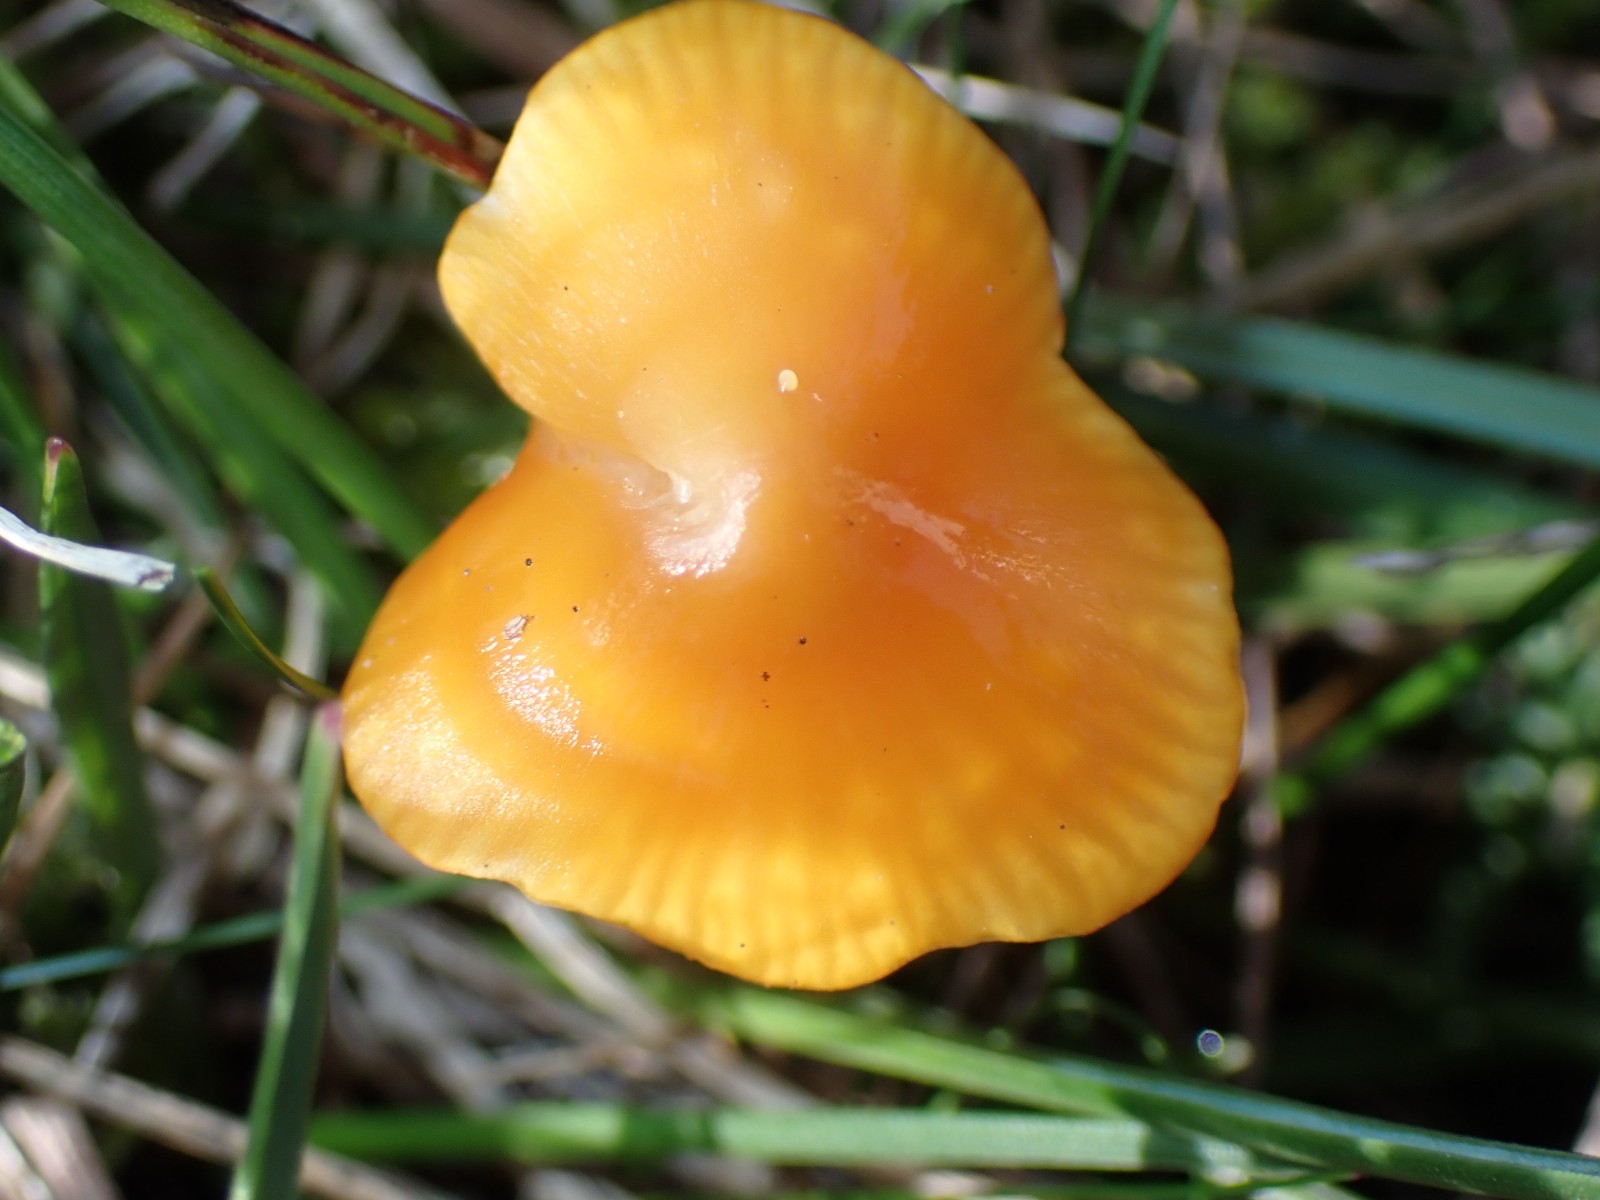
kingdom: Fungi
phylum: Basidiomycota
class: Agaricomycetes
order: Agaricales
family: Hygrophoraceae
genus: Hygrocybe
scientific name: Hygrocybe
